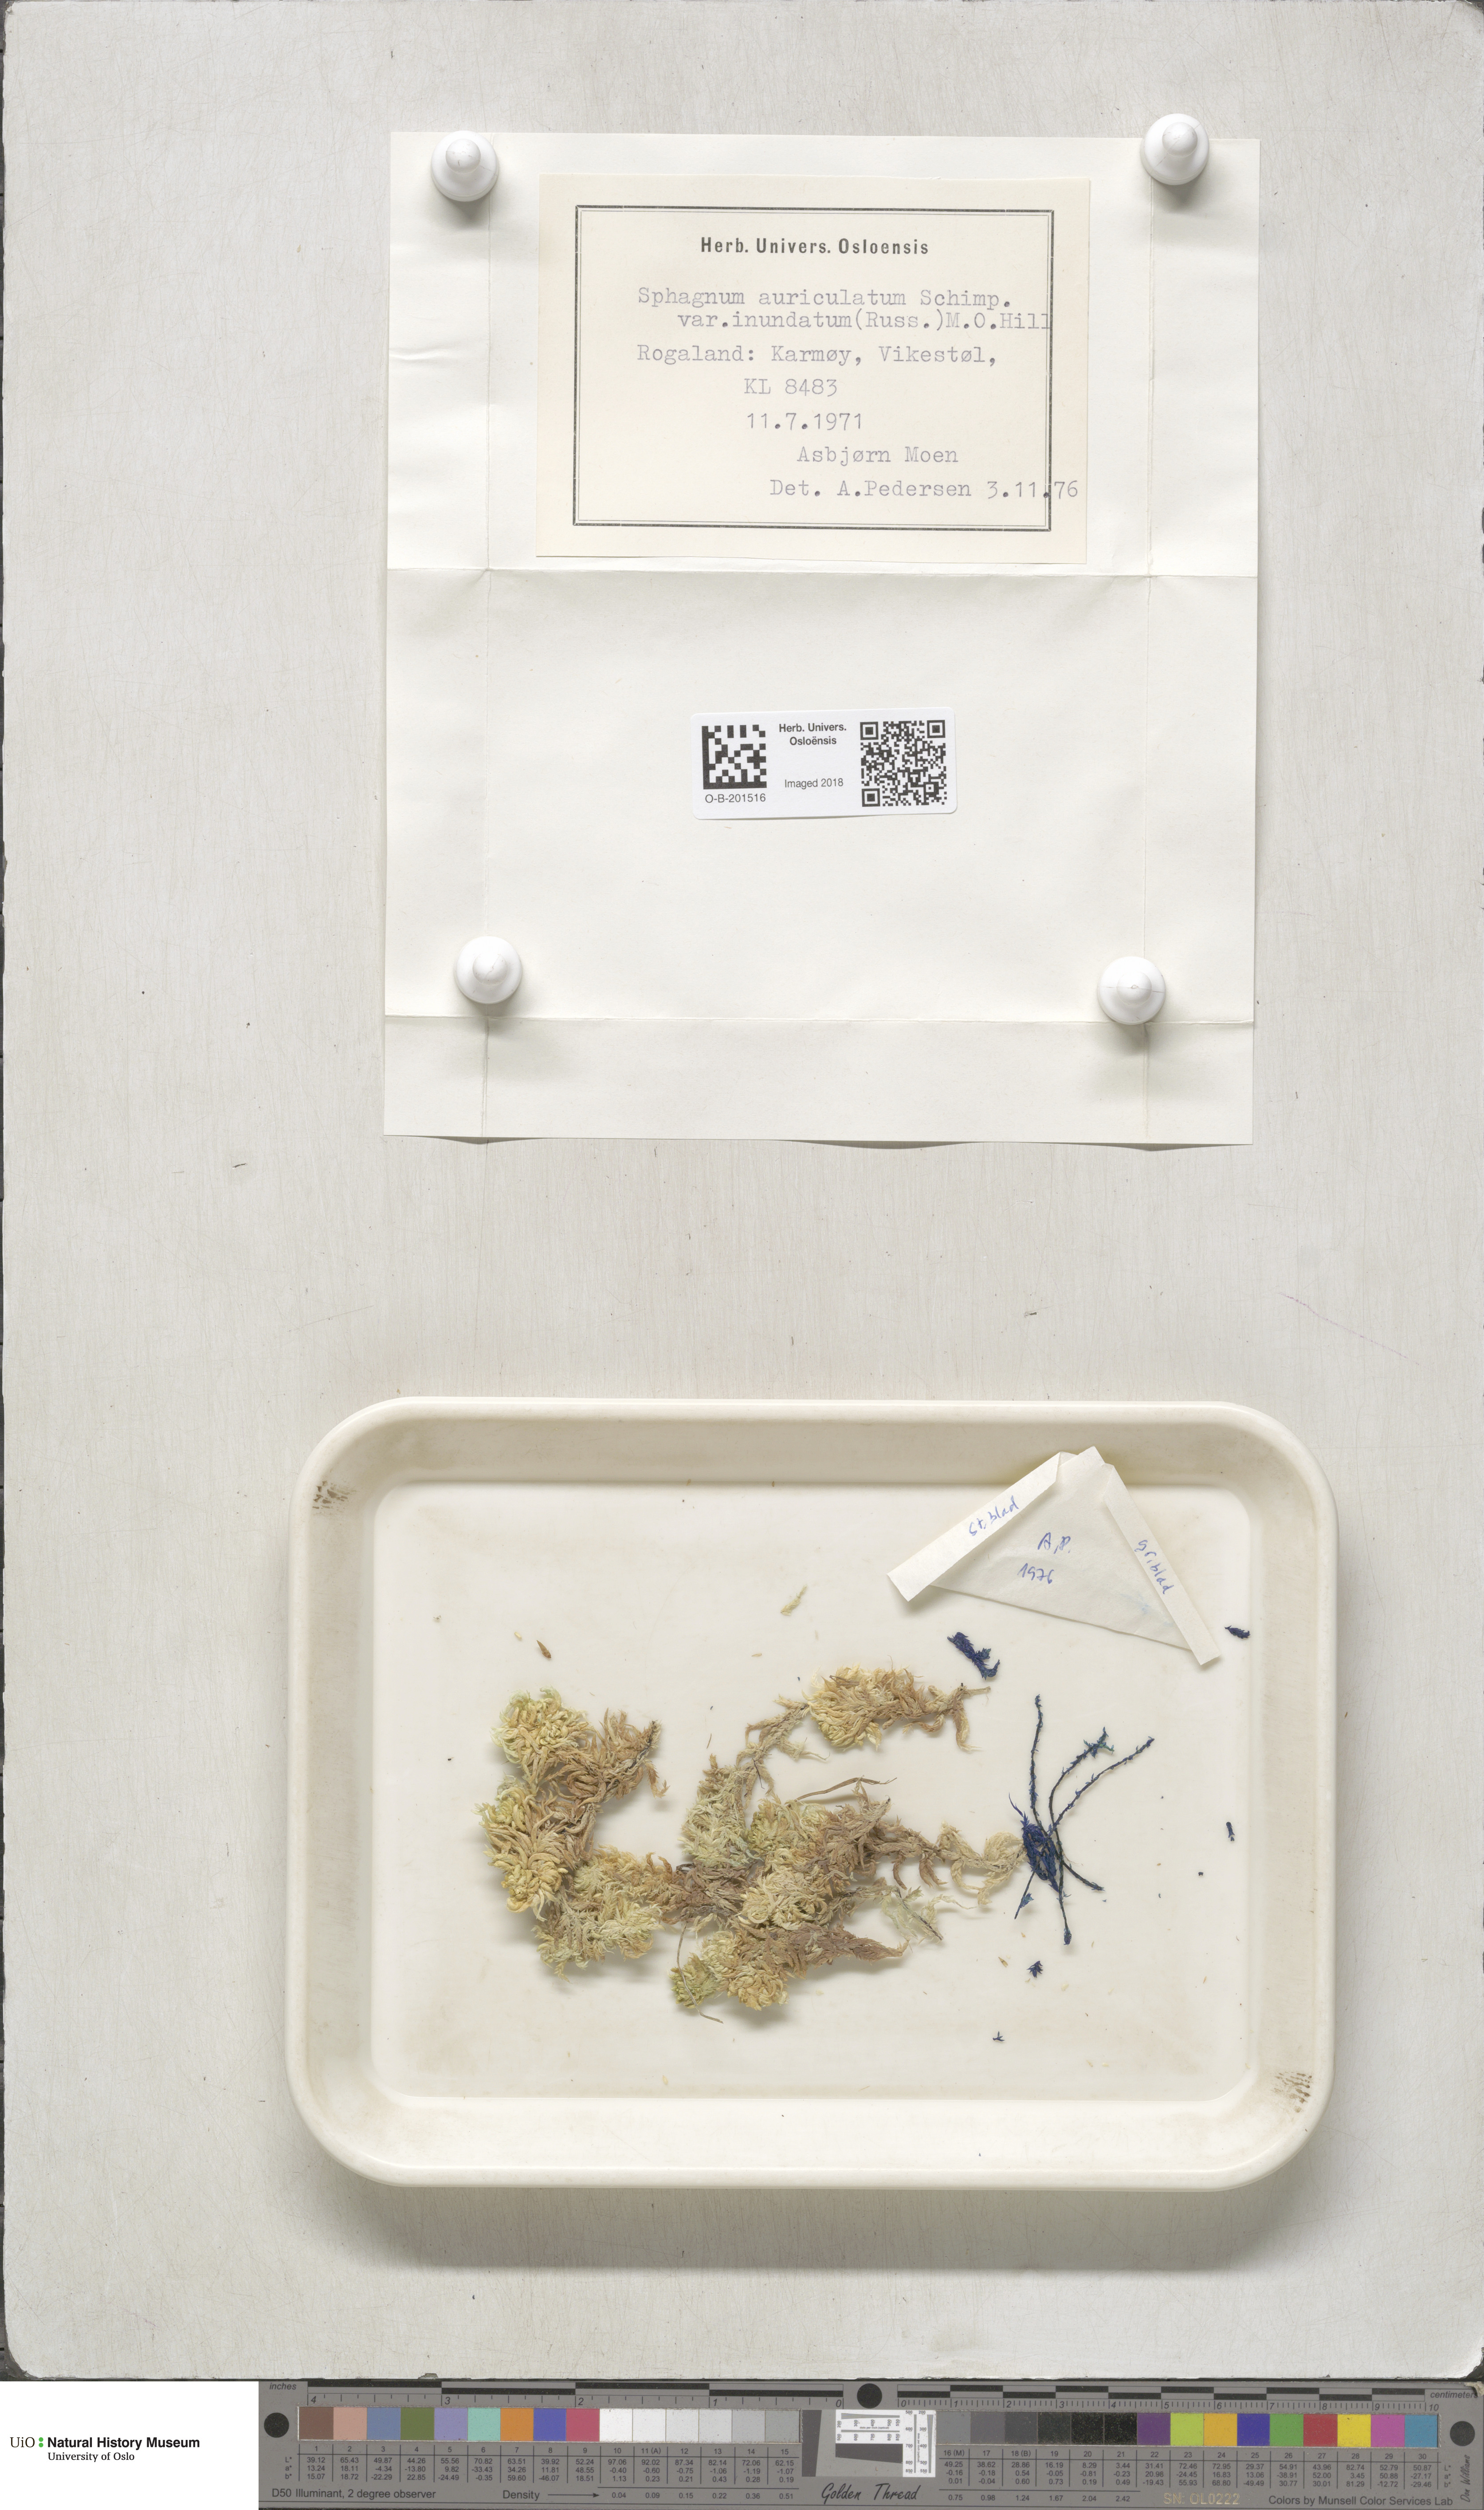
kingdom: Plantae
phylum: Bryophyta
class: Sphagnopsida
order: Sphagnales
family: Sphagnaceae
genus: Sphagnum
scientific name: Sphagnum inundatum
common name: Lesser cow-horn bog-moss
